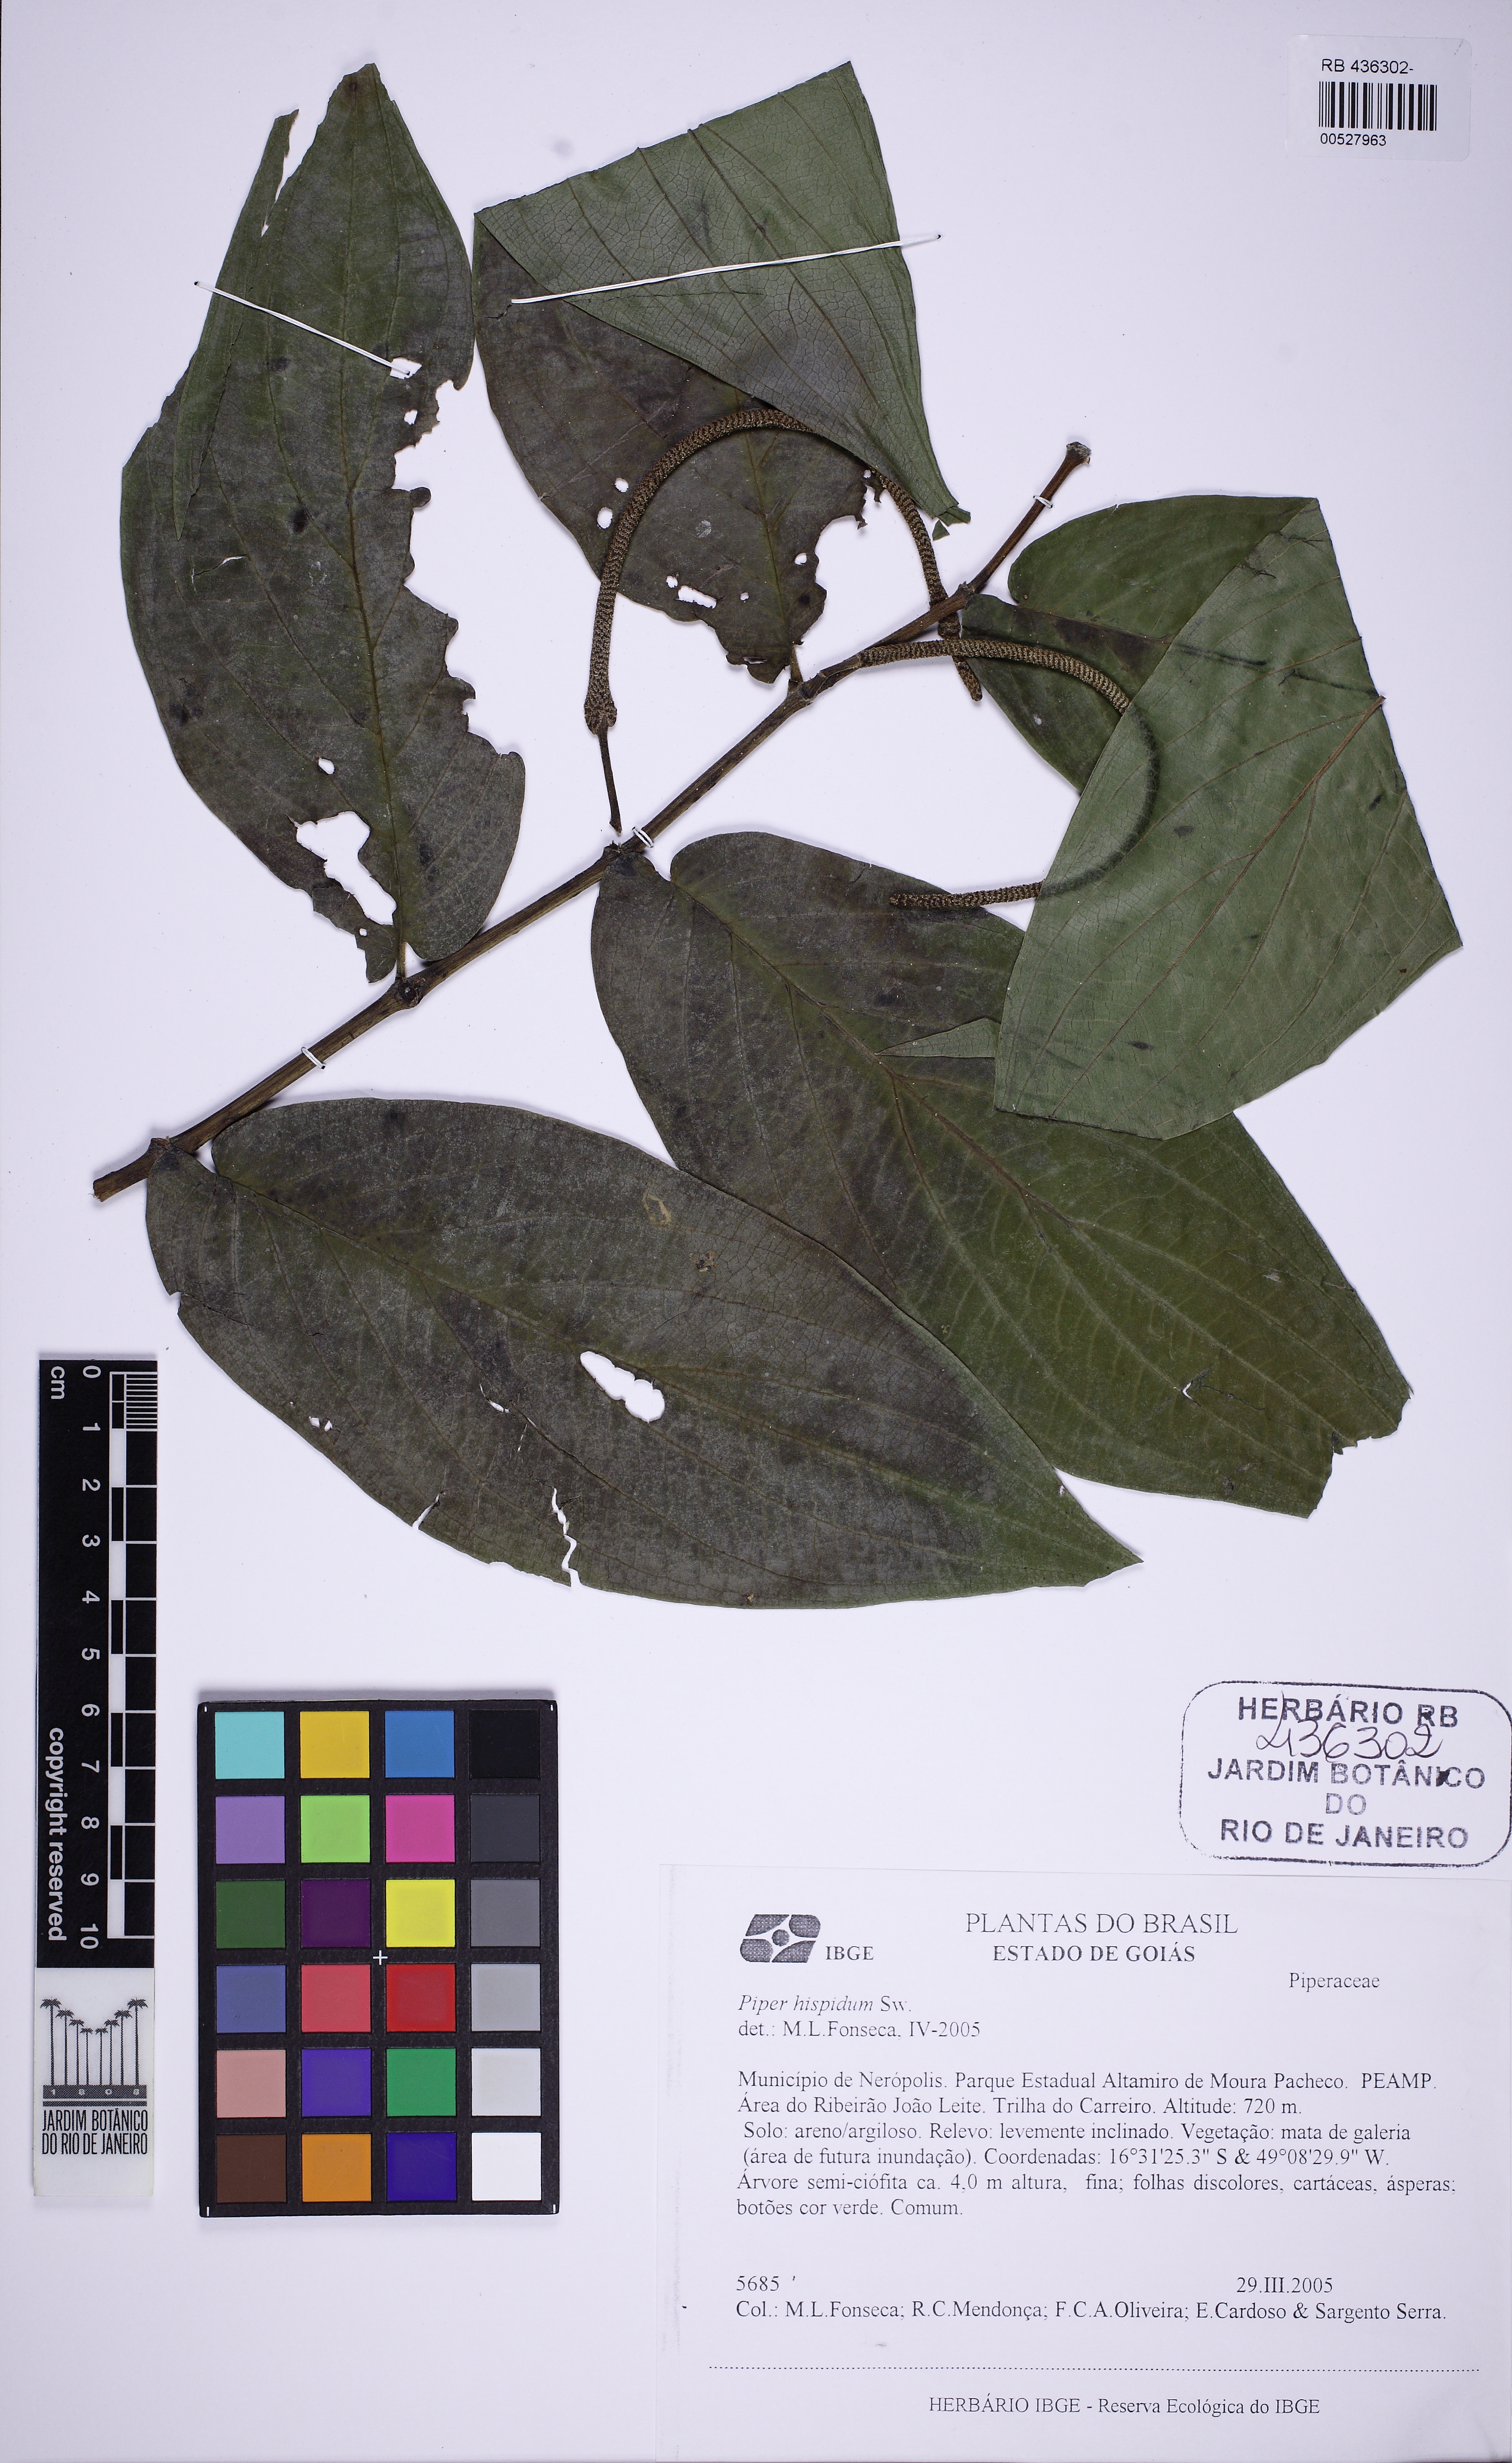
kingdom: Plantae
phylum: Tracheophyta
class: Magnoliopsida
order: Piperales
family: Piperaceae
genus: Piper
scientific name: Piper hispidum
